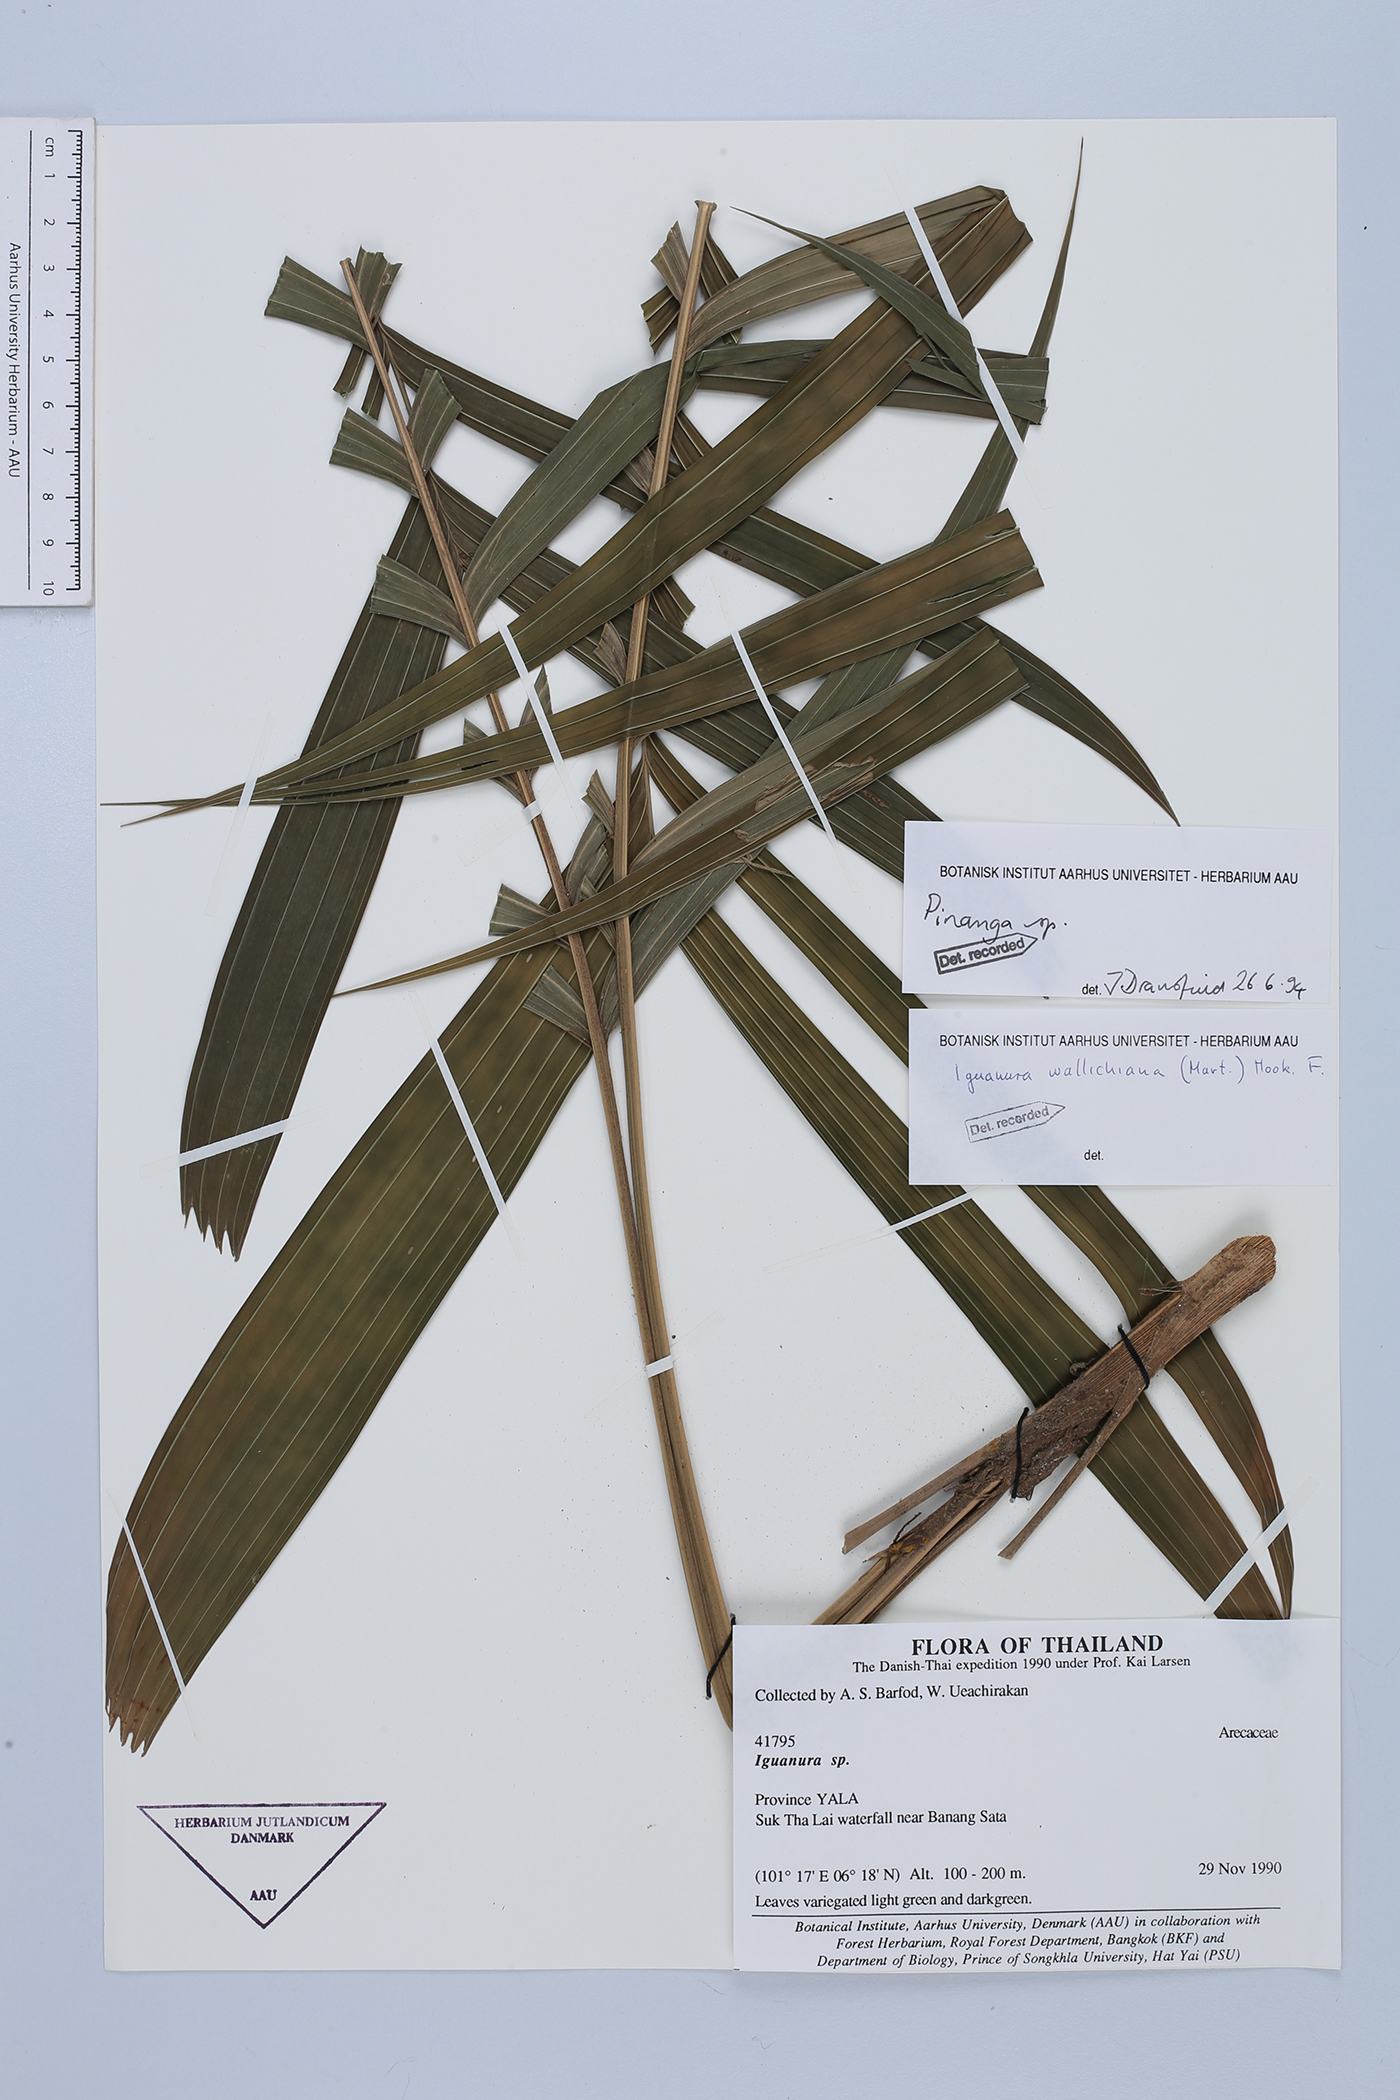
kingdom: Plantae
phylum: Tracheophyta
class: Liliopsida
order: Arecales
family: Arecaceae
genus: Pinanga
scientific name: Pinanga
